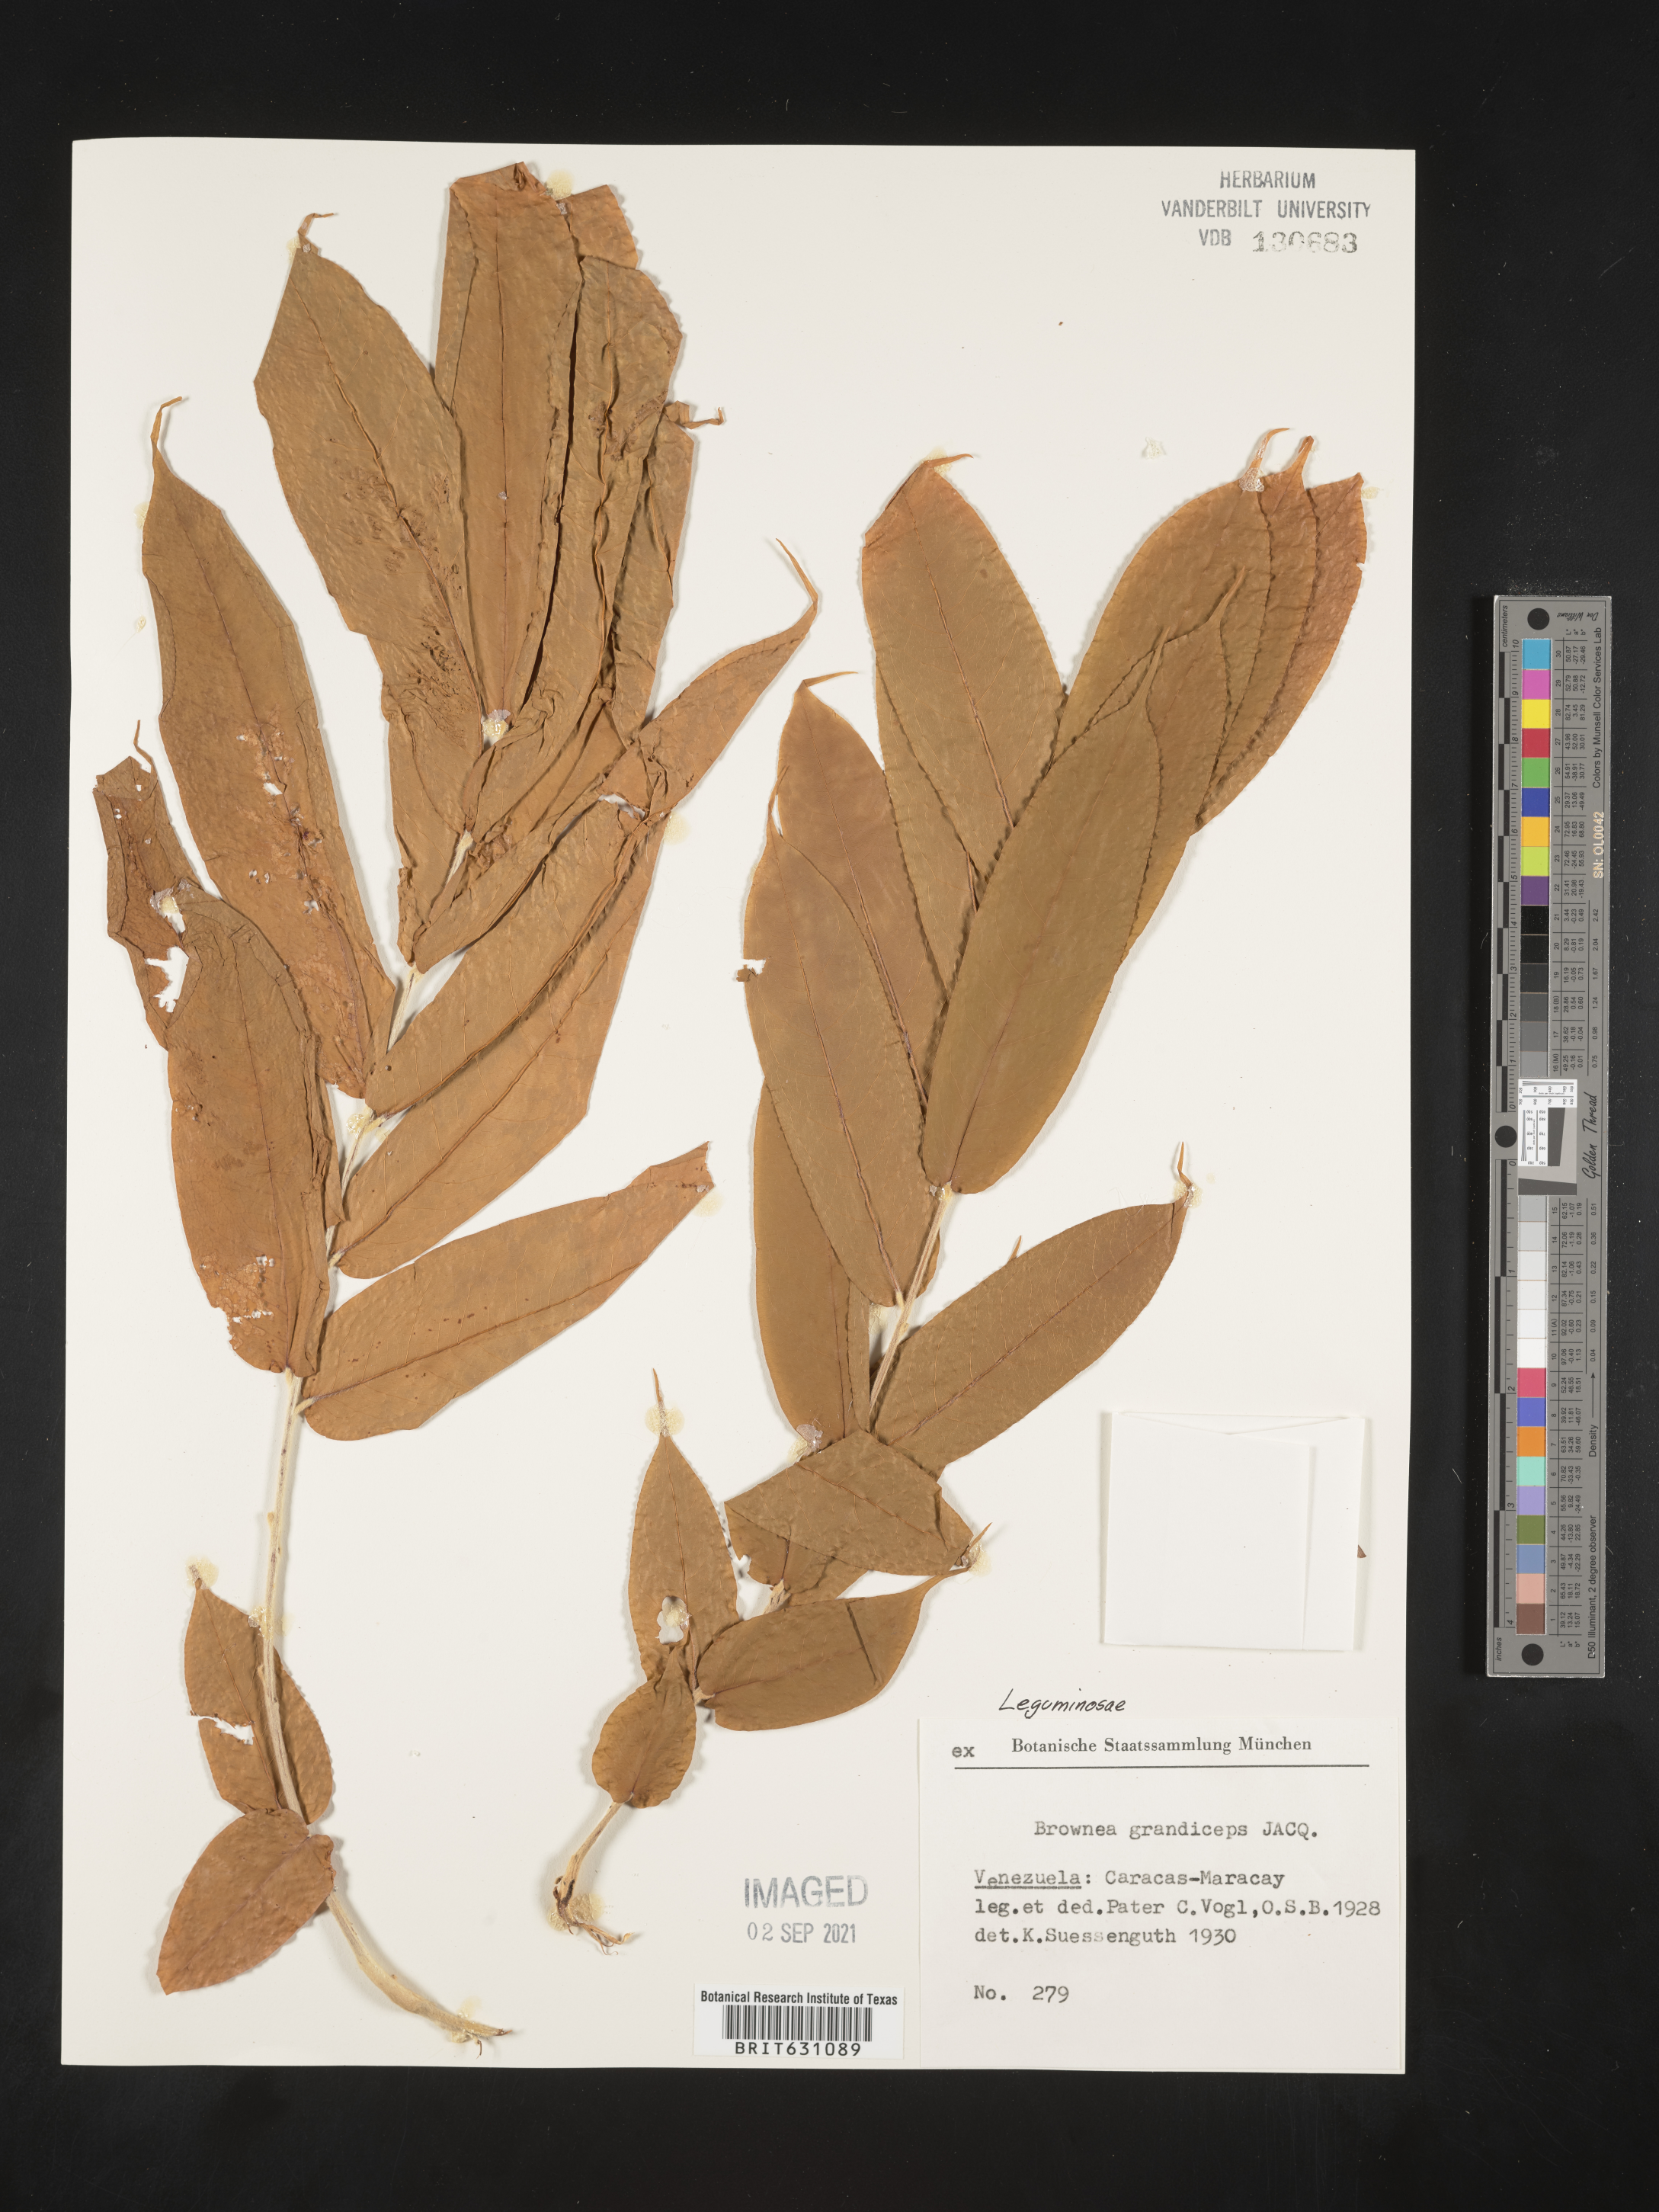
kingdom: Plantae
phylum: Tracheophyta
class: Magnoliopsida
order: Fabales
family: Fabaceae
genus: Brownea
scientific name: Brownea
